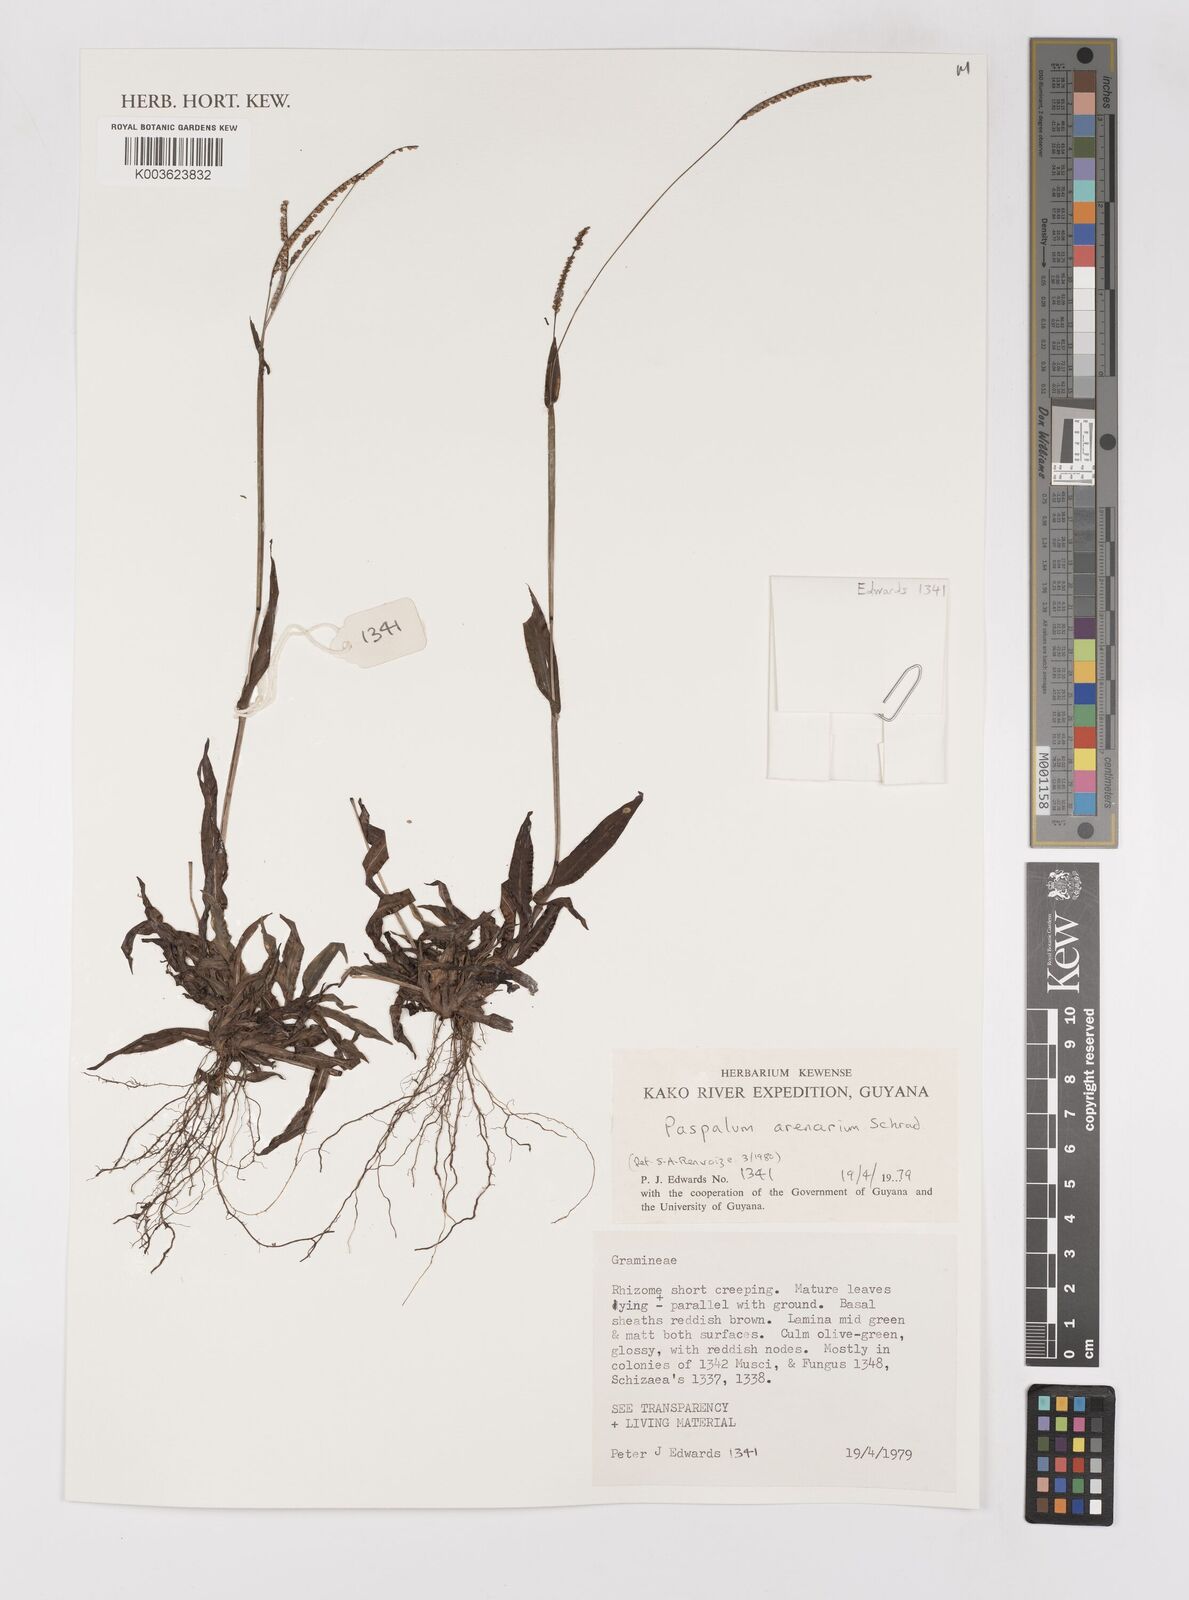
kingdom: Plantae
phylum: Tracheophyta
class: Liliopsida
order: Poales
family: Poaceae
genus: Paspalum
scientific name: Paspalum arenarium
